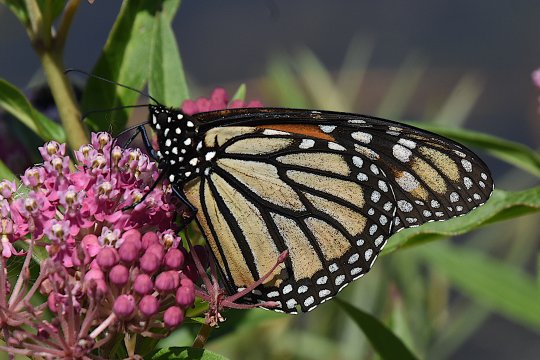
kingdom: Animalia
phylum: Arthropoda
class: Insecta
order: Lepidoptera
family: Nymphalidae
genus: Danaus
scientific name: Danaus plexippus
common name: Monarch
